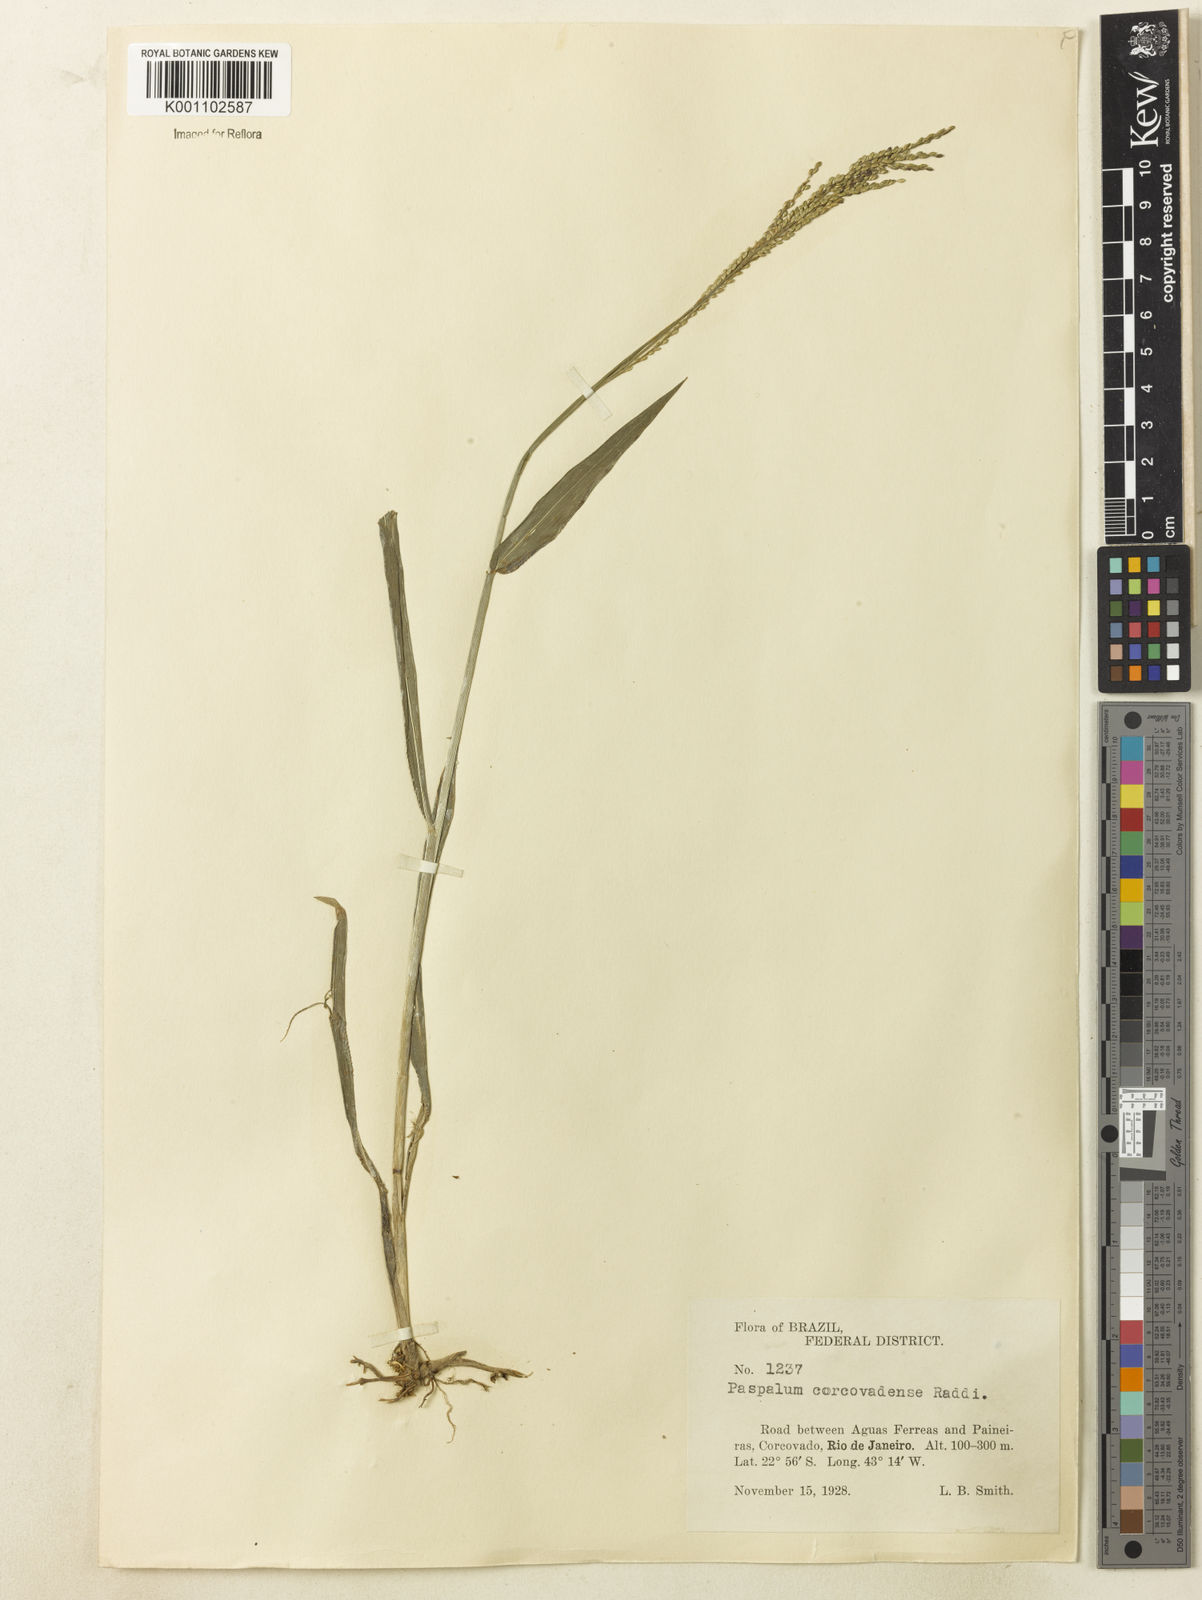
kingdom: Plantae
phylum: Tracheophyta
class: Liliopsida
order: Poales
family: Poaceae
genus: Paspalum
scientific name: Paspalum corcovadense
